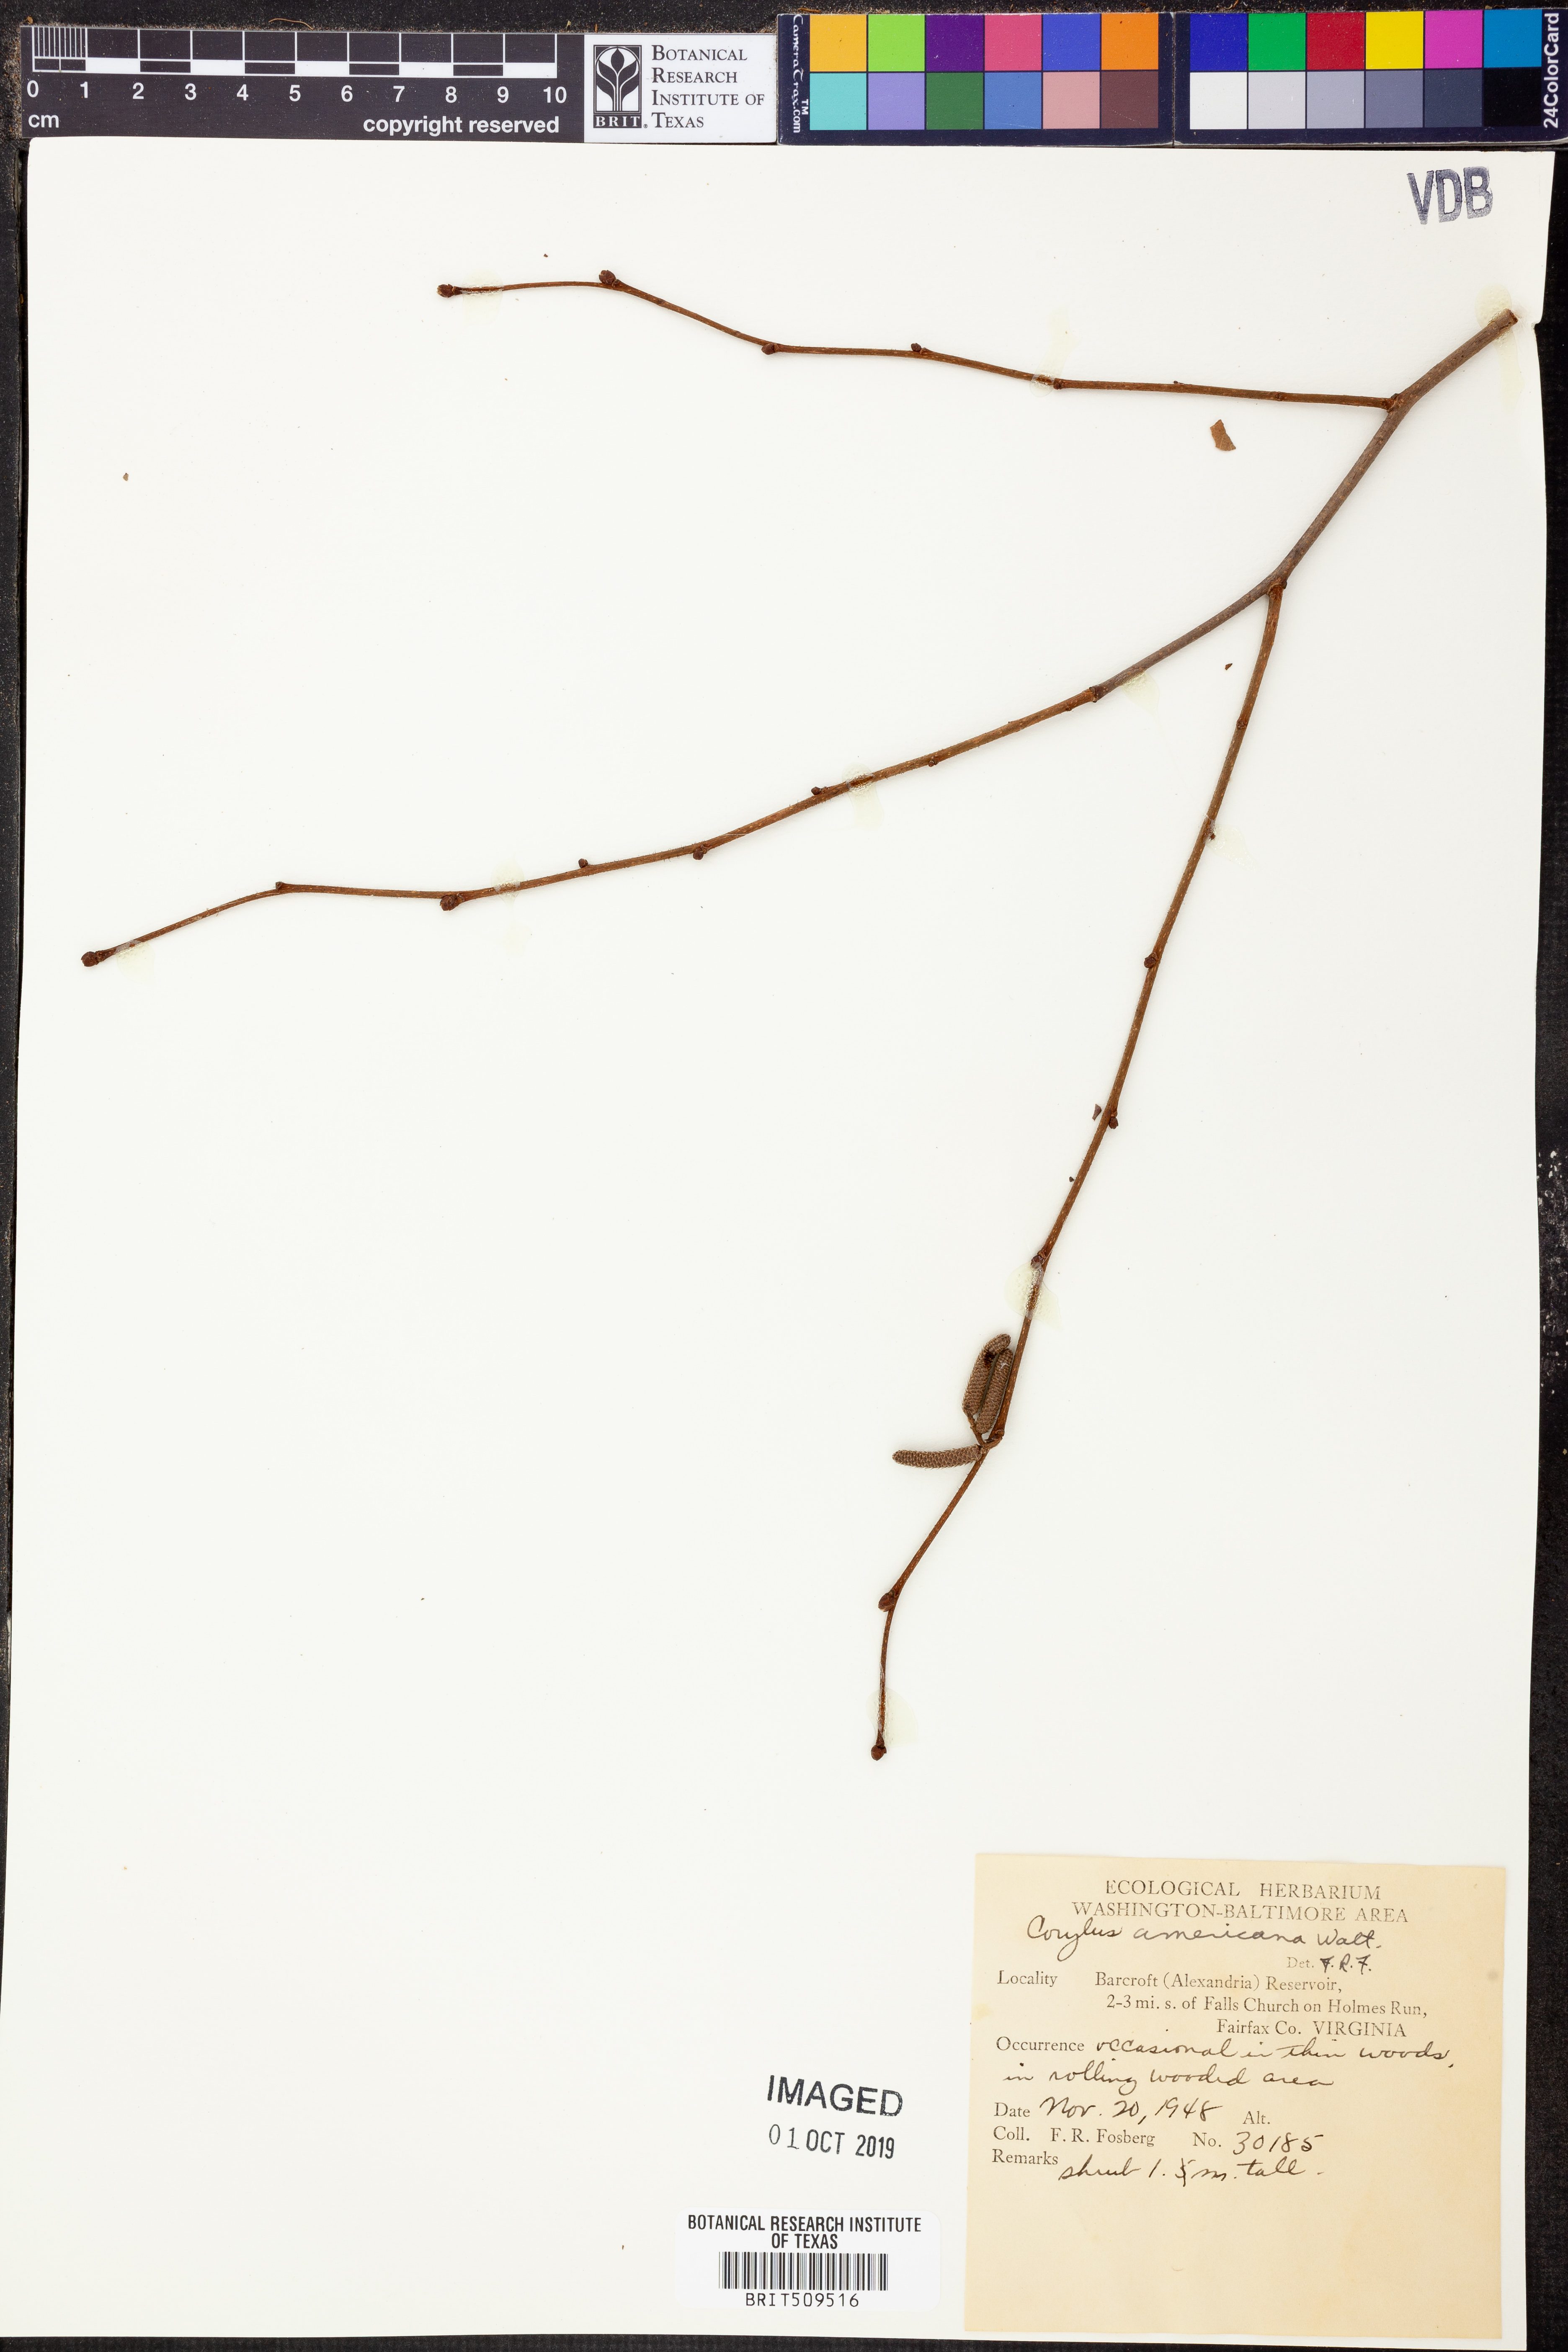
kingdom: Plantae
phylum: Tracheophyta
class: Magnoliopsida
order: Fagales
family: Betulaceae
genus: Corylus
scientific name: Corylus americana
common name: American hazel
